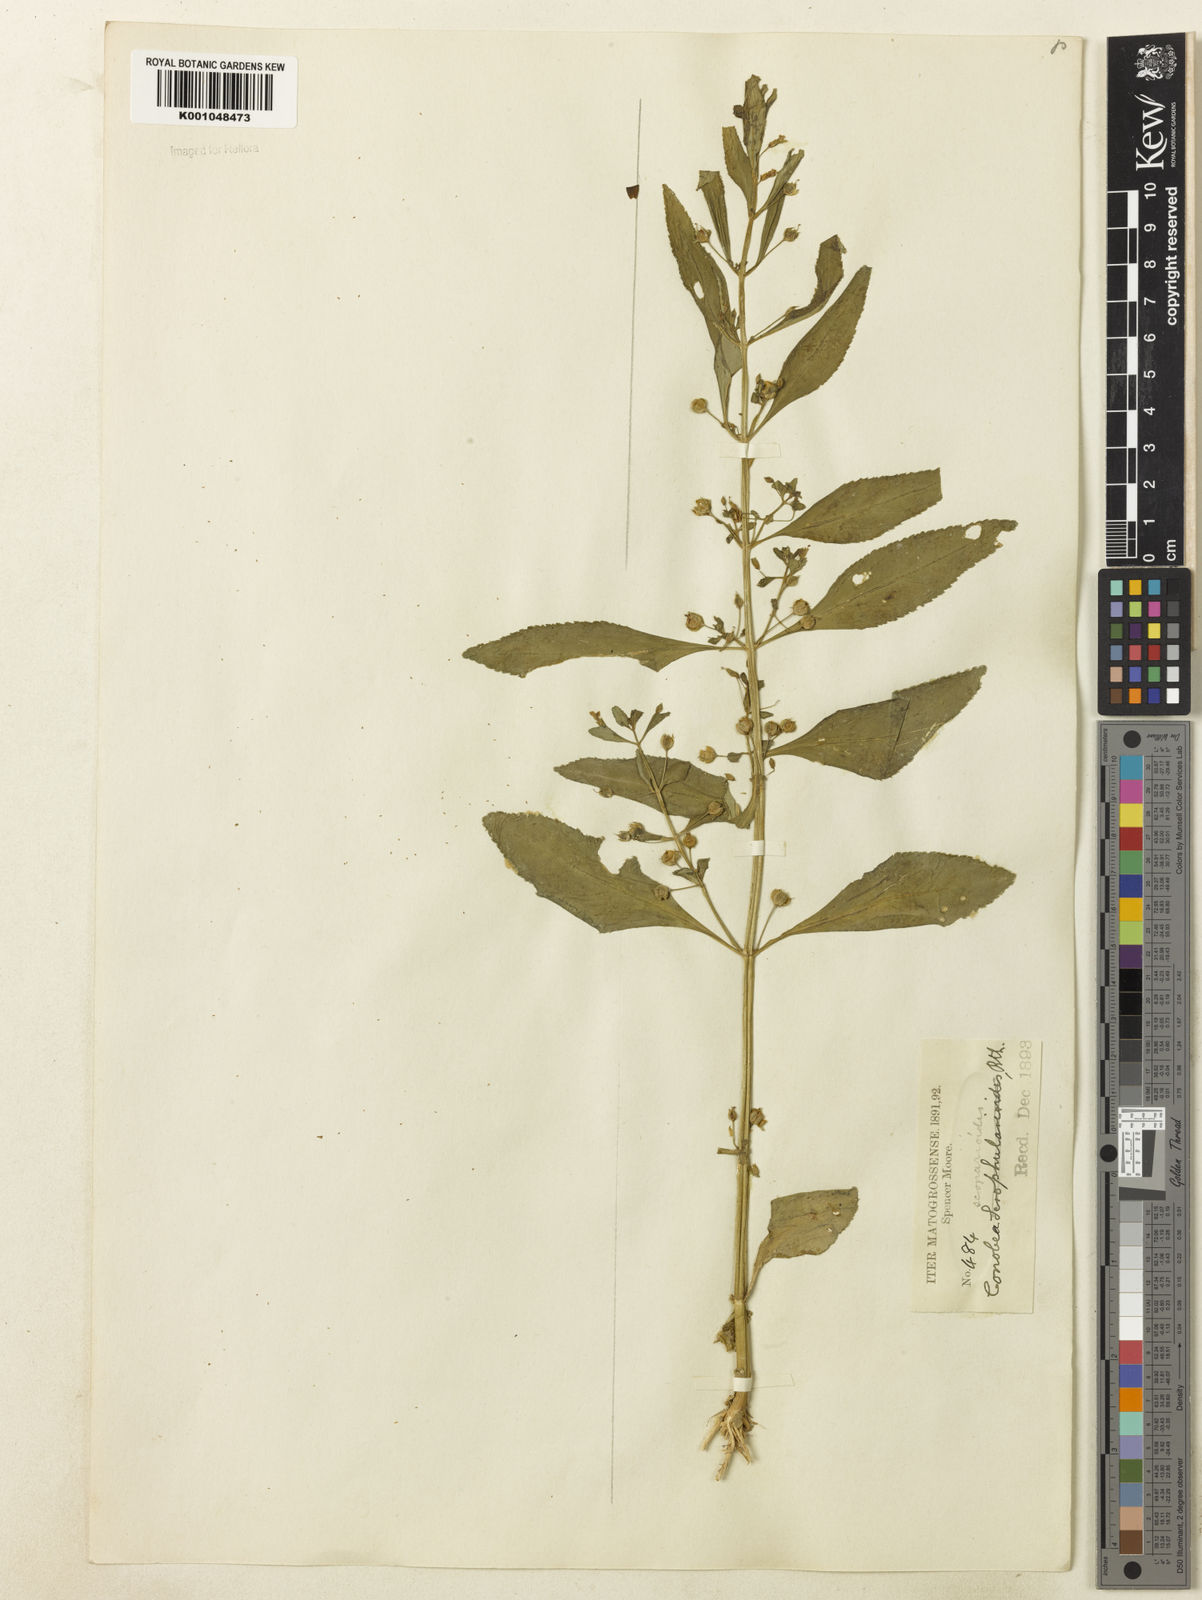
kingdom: Plantae
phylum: Tracheophyta
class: Magnoliopsida
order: Lamiales
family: Plantaginaceae
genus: Conobea
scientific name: Conobea scoparioides
